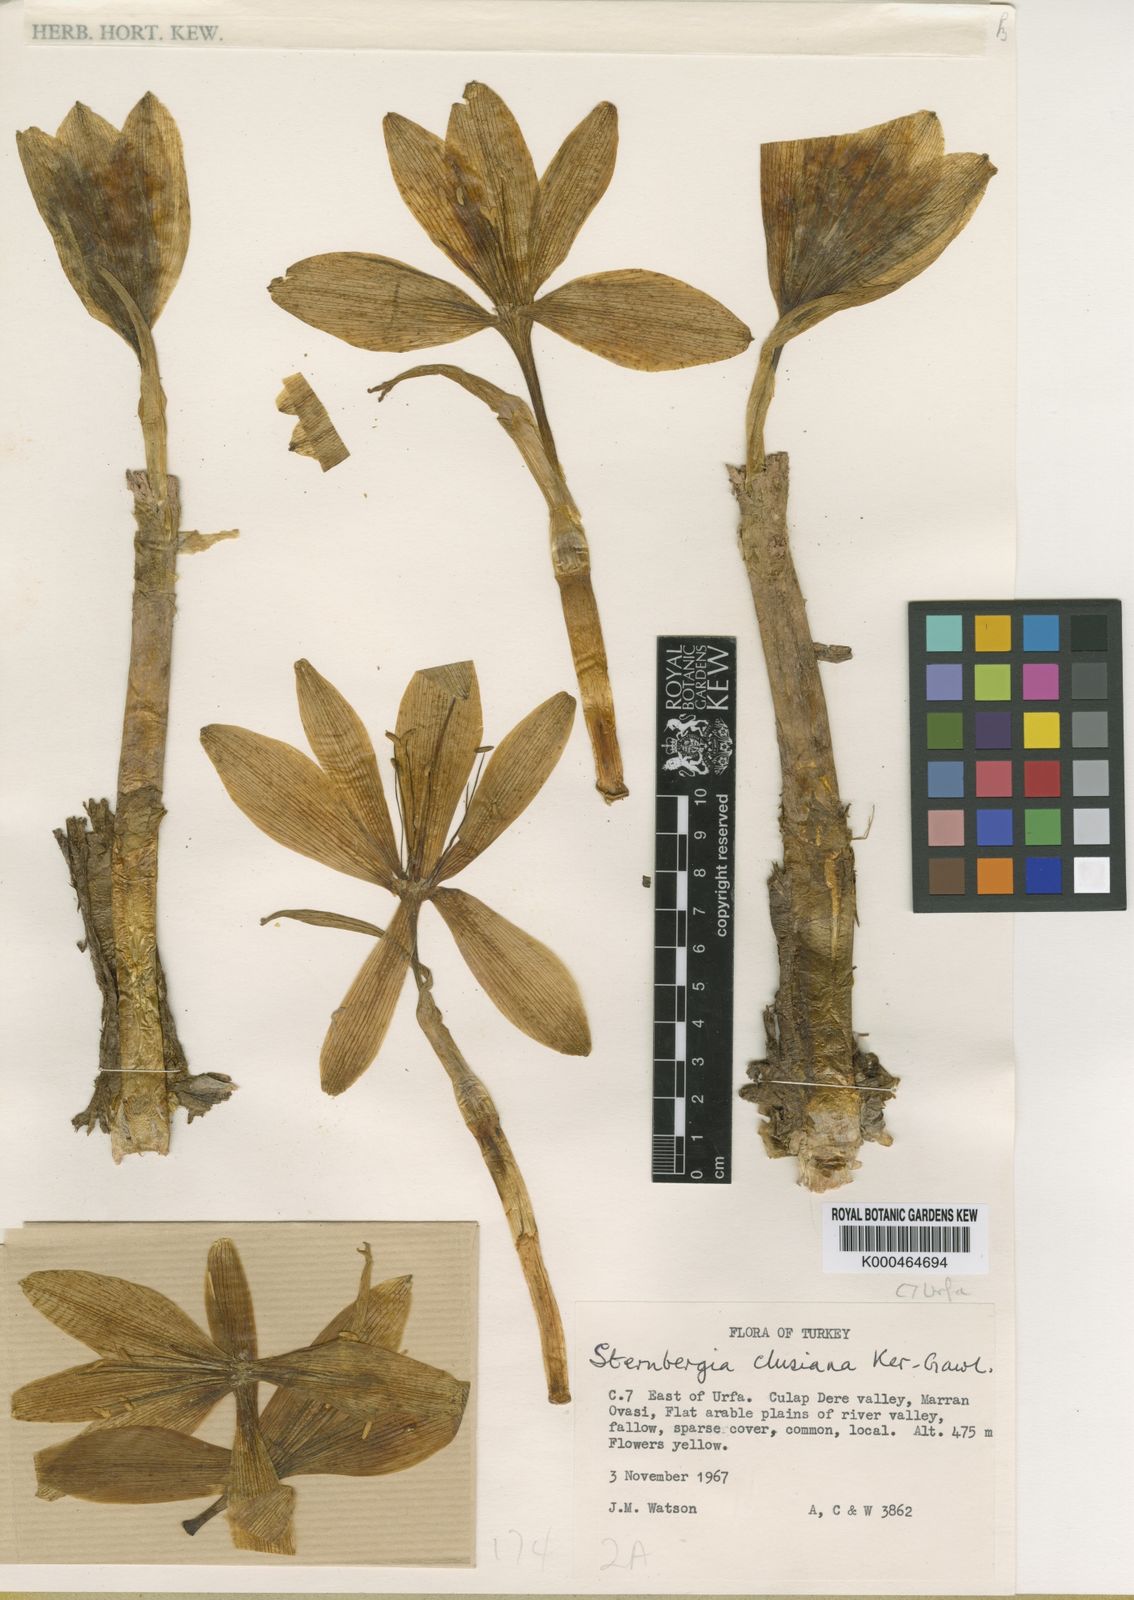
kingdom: Plantae
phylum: Tracheophyta
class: Liliopsida
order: Asparagales
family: Amaryllidaceae
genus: Sternbergia
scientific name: Sternbergia
